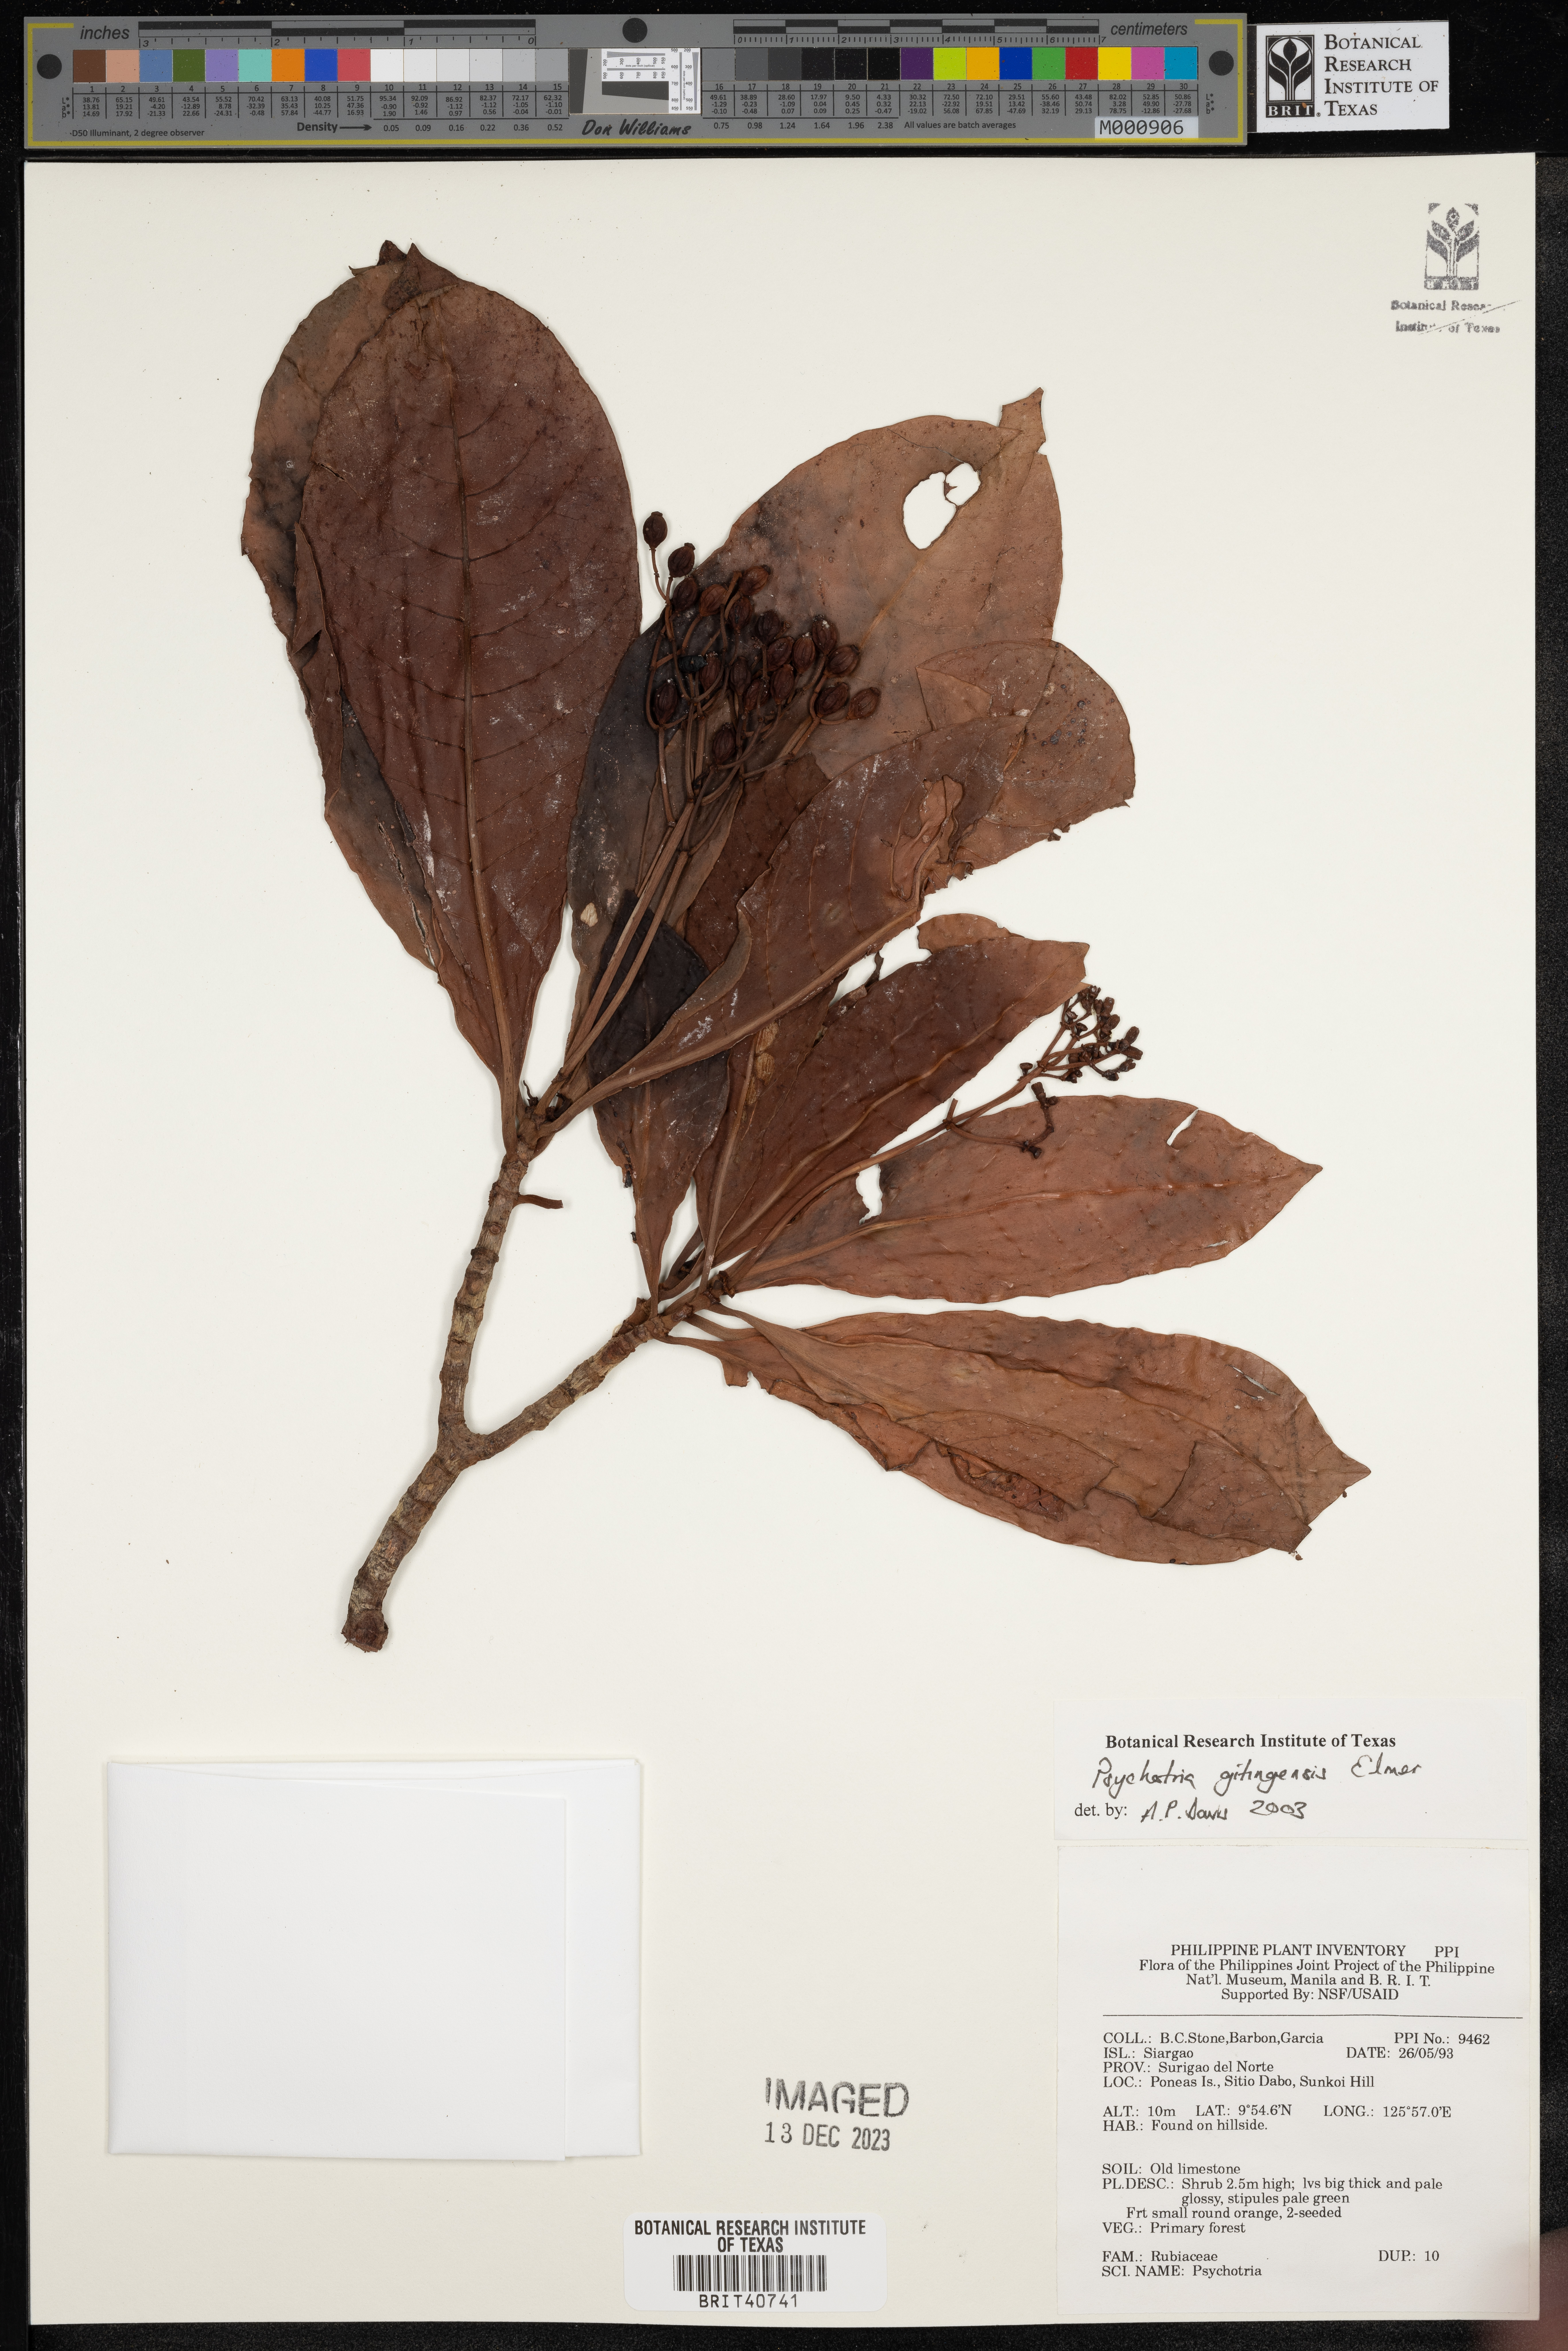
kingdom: Plantae
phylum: Tracheophyta
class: Magnoliopsida
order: Gentianales
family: Rubiaceae
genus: Psychotria
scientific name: Psychotria gitingensis
